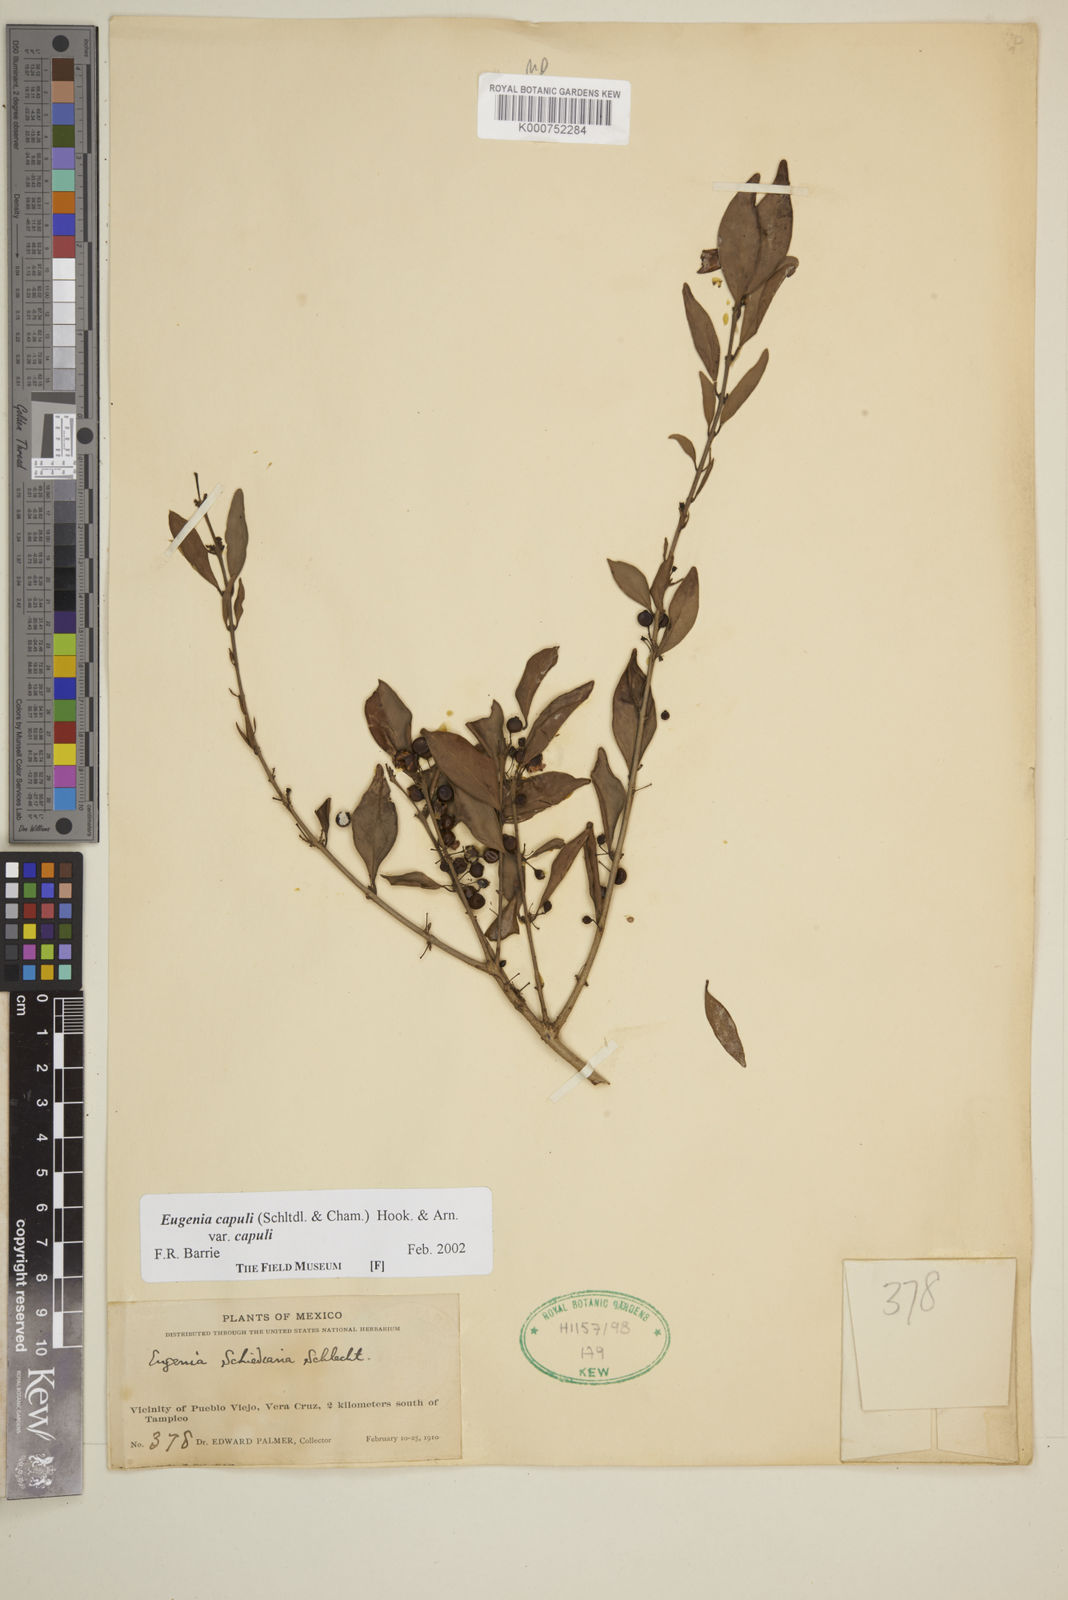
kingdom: Plantae
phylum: Tracheophyta
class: Magnoliopsida
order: Myrtales
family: Myrtaceae
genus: Eugenia
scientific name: Eugenia capuli
